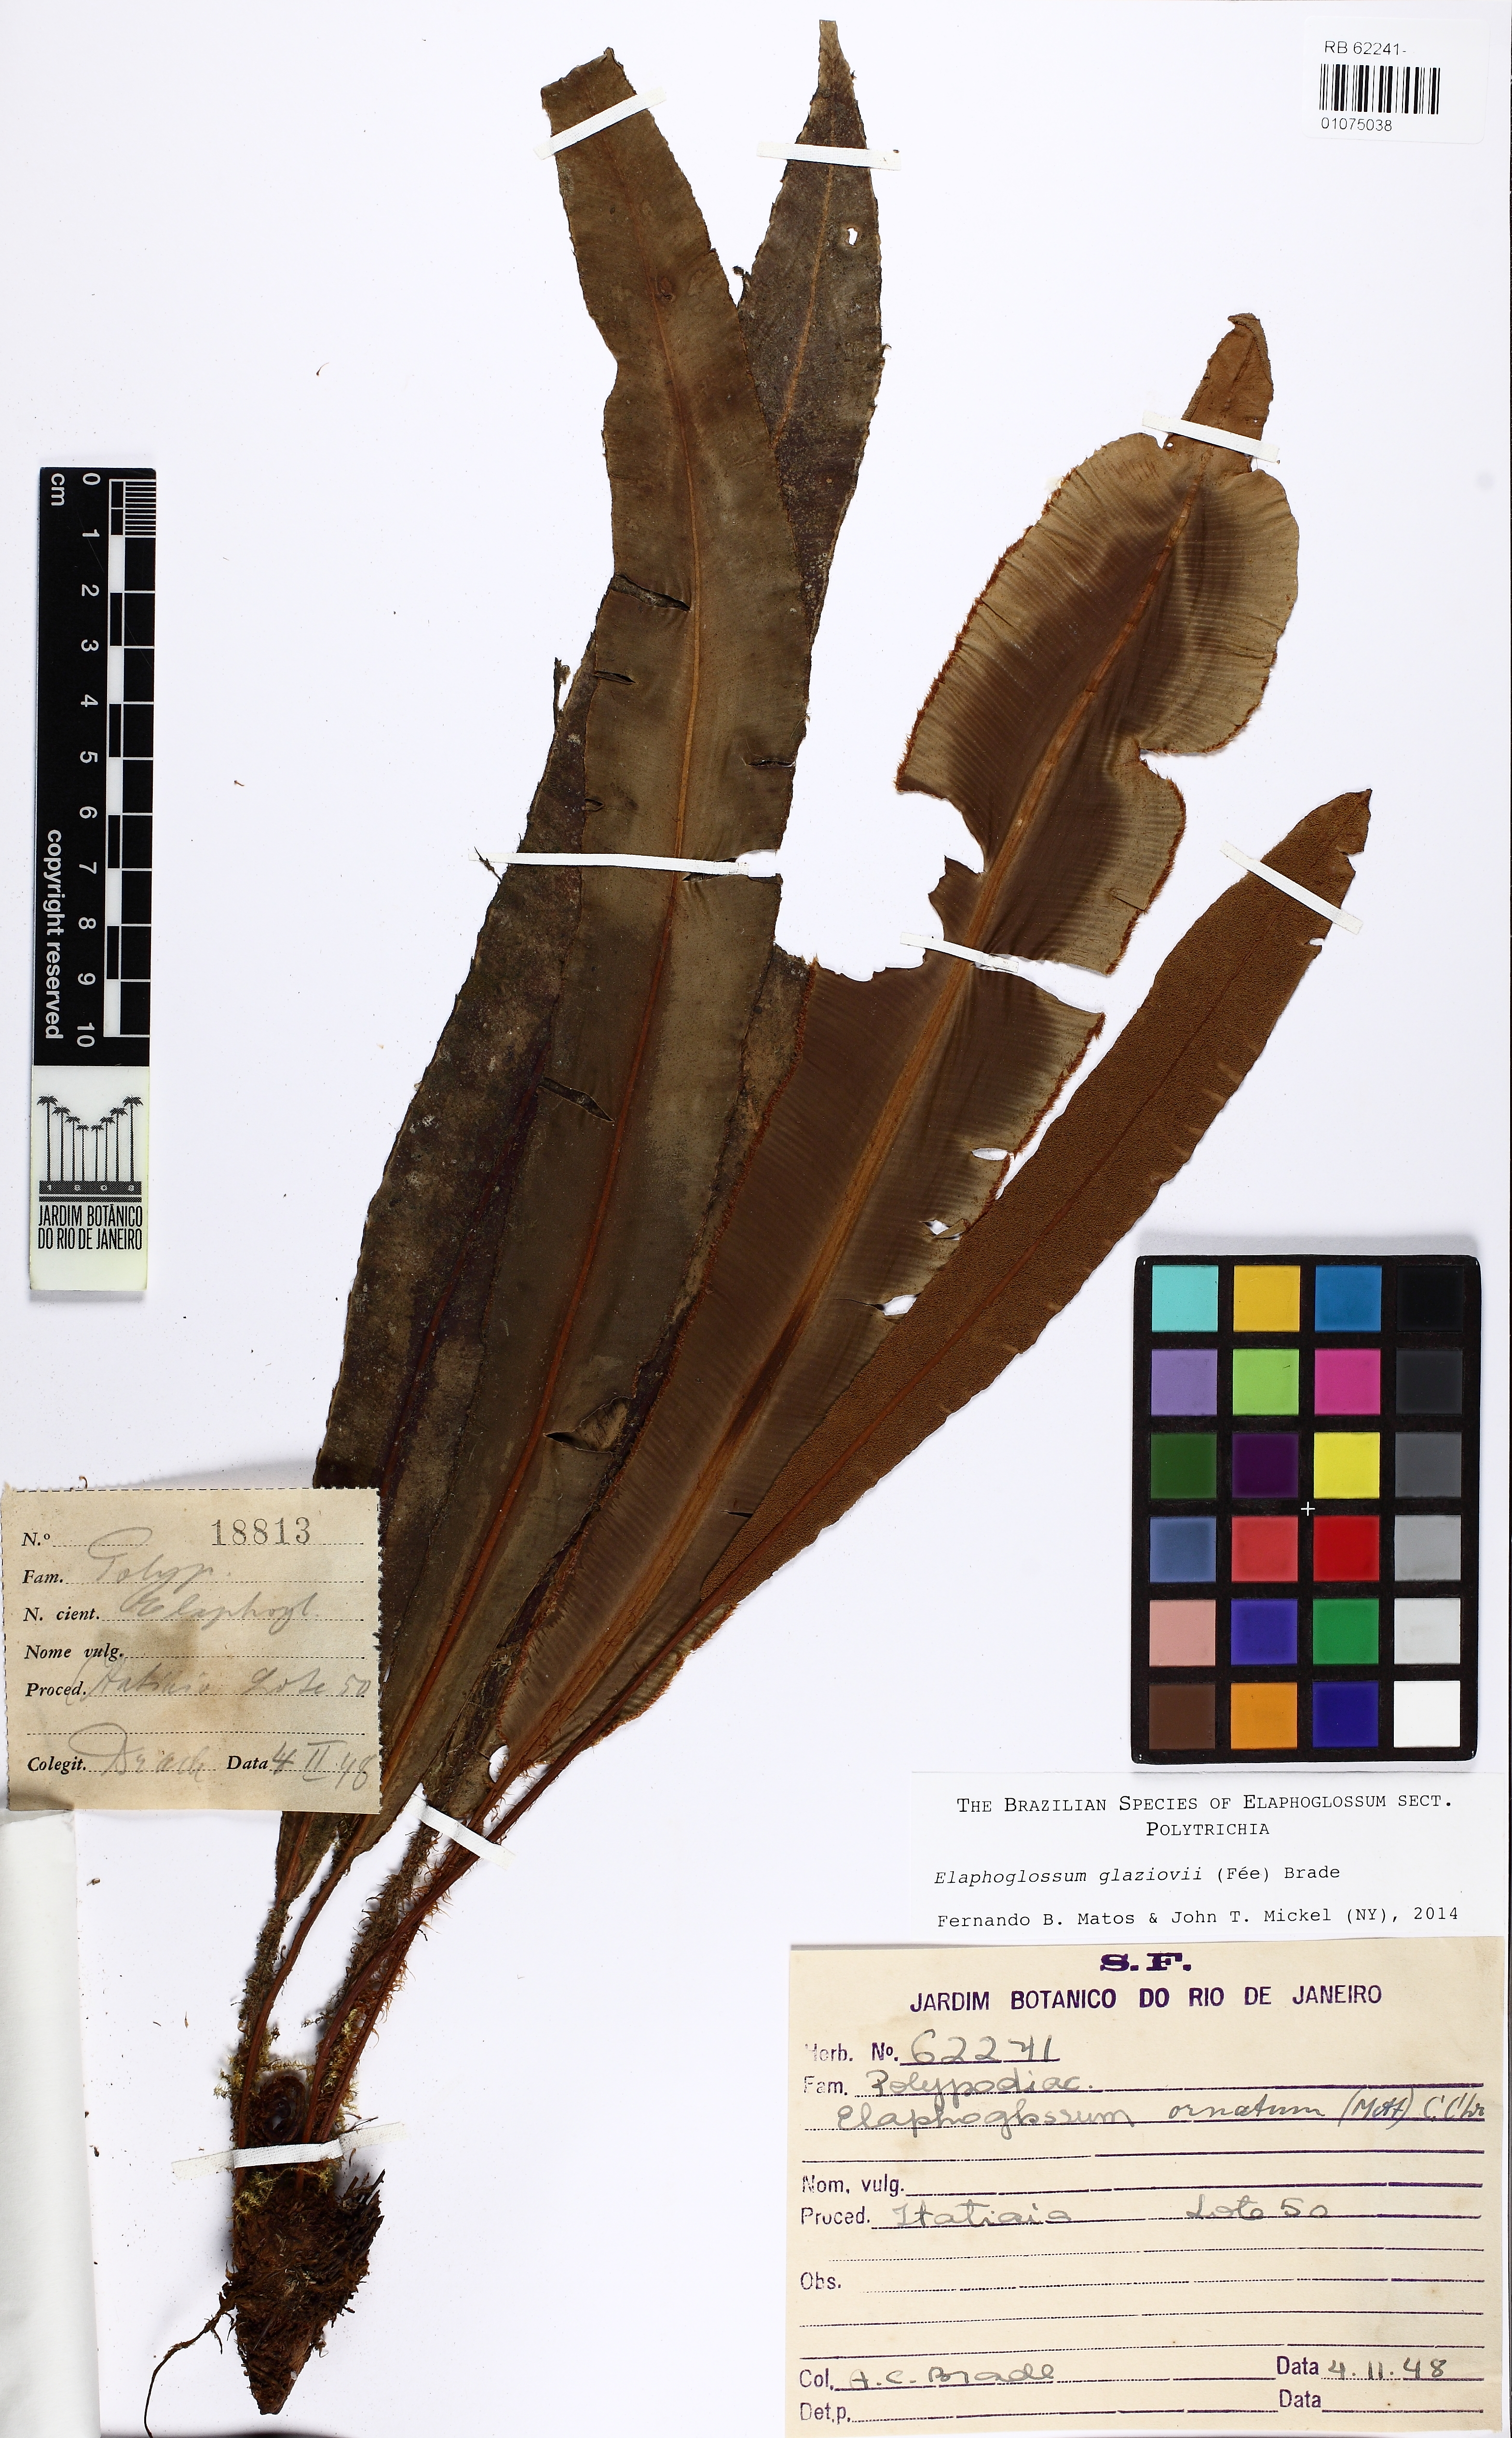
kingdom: Plantae
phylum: Tracheophyta
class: Polypodiopsida
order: Polypodiales
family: Dryopteridaceae
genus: Elaphoglossum
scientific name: Elaphoglossum glaziovii
